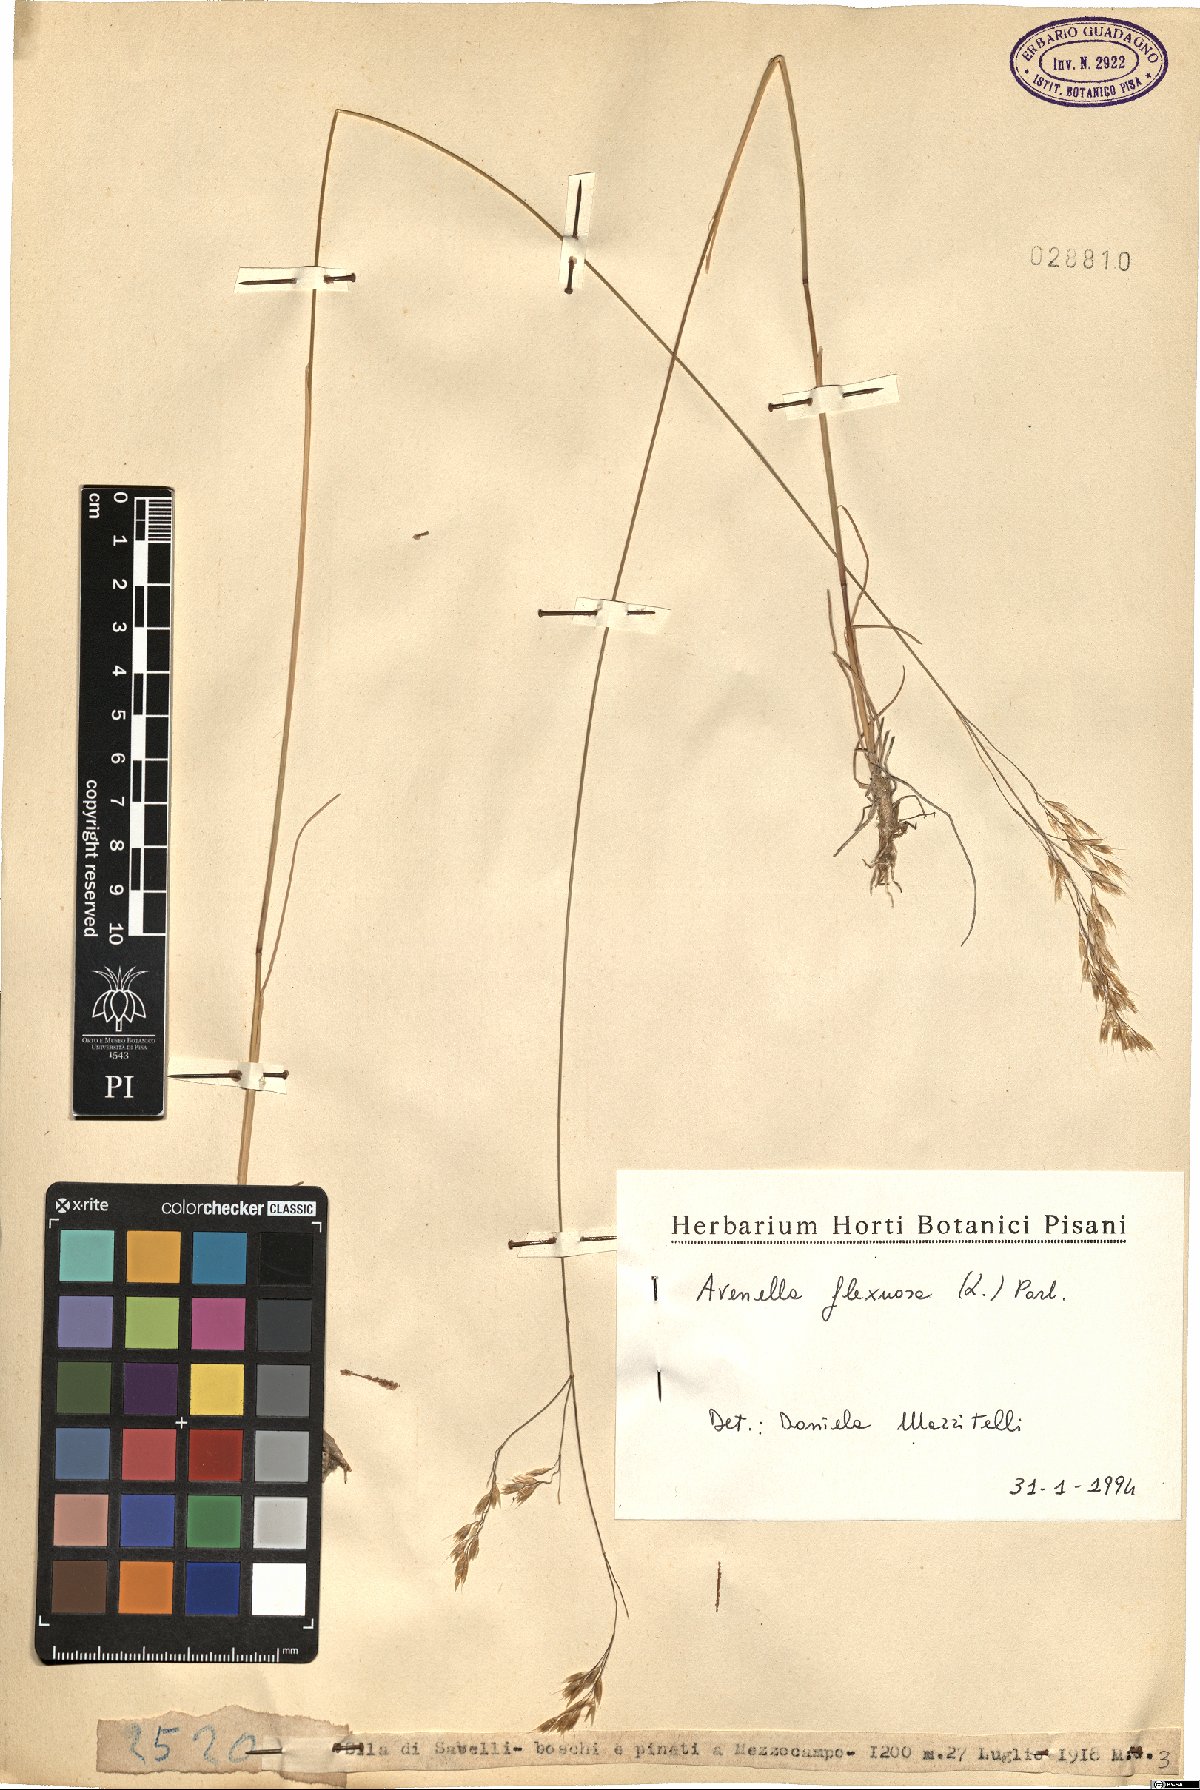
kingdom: Plantae
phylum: Tracheophyta
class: Liliopsida
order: Poales
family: Poaceae
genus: Avenella
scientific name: Avenella flexuosa
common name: Wavy hairgrass
